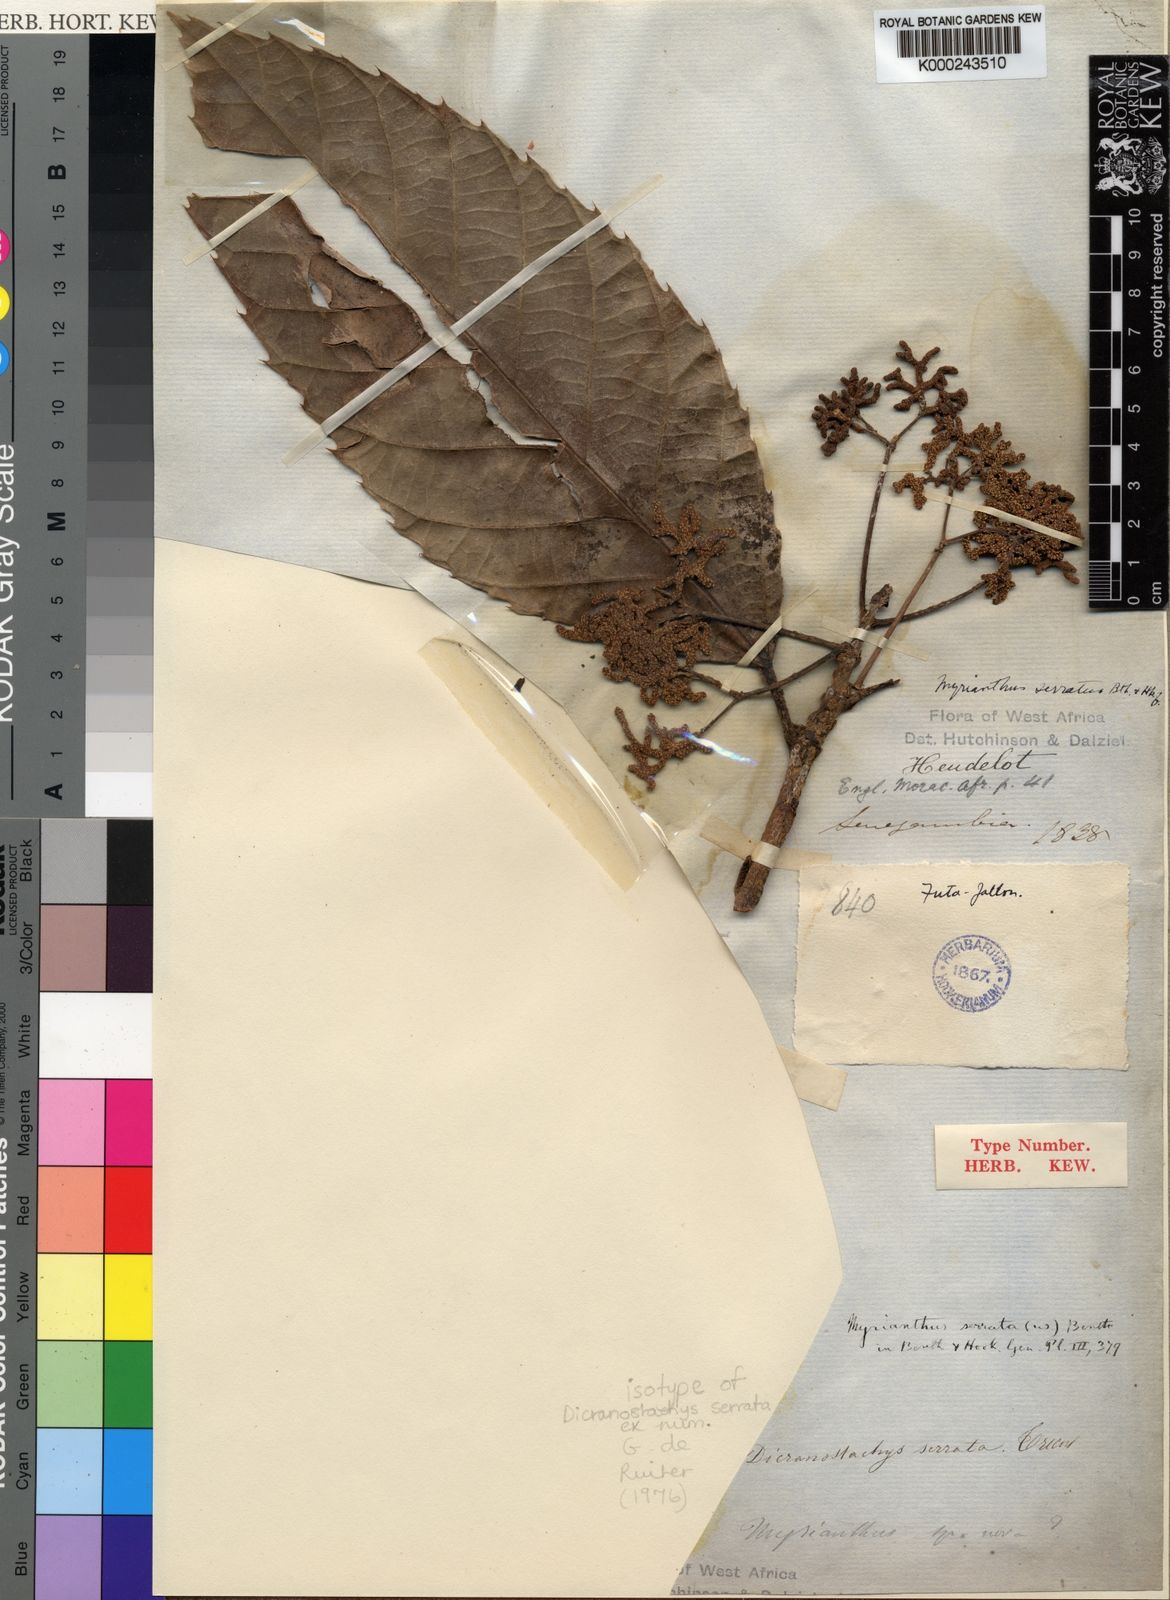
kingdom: Plantae
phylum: Tracheophyta
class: Magnoliopsida
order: Rosales
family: Urticaceae
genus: Myrianthus
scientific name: Myrianthus
